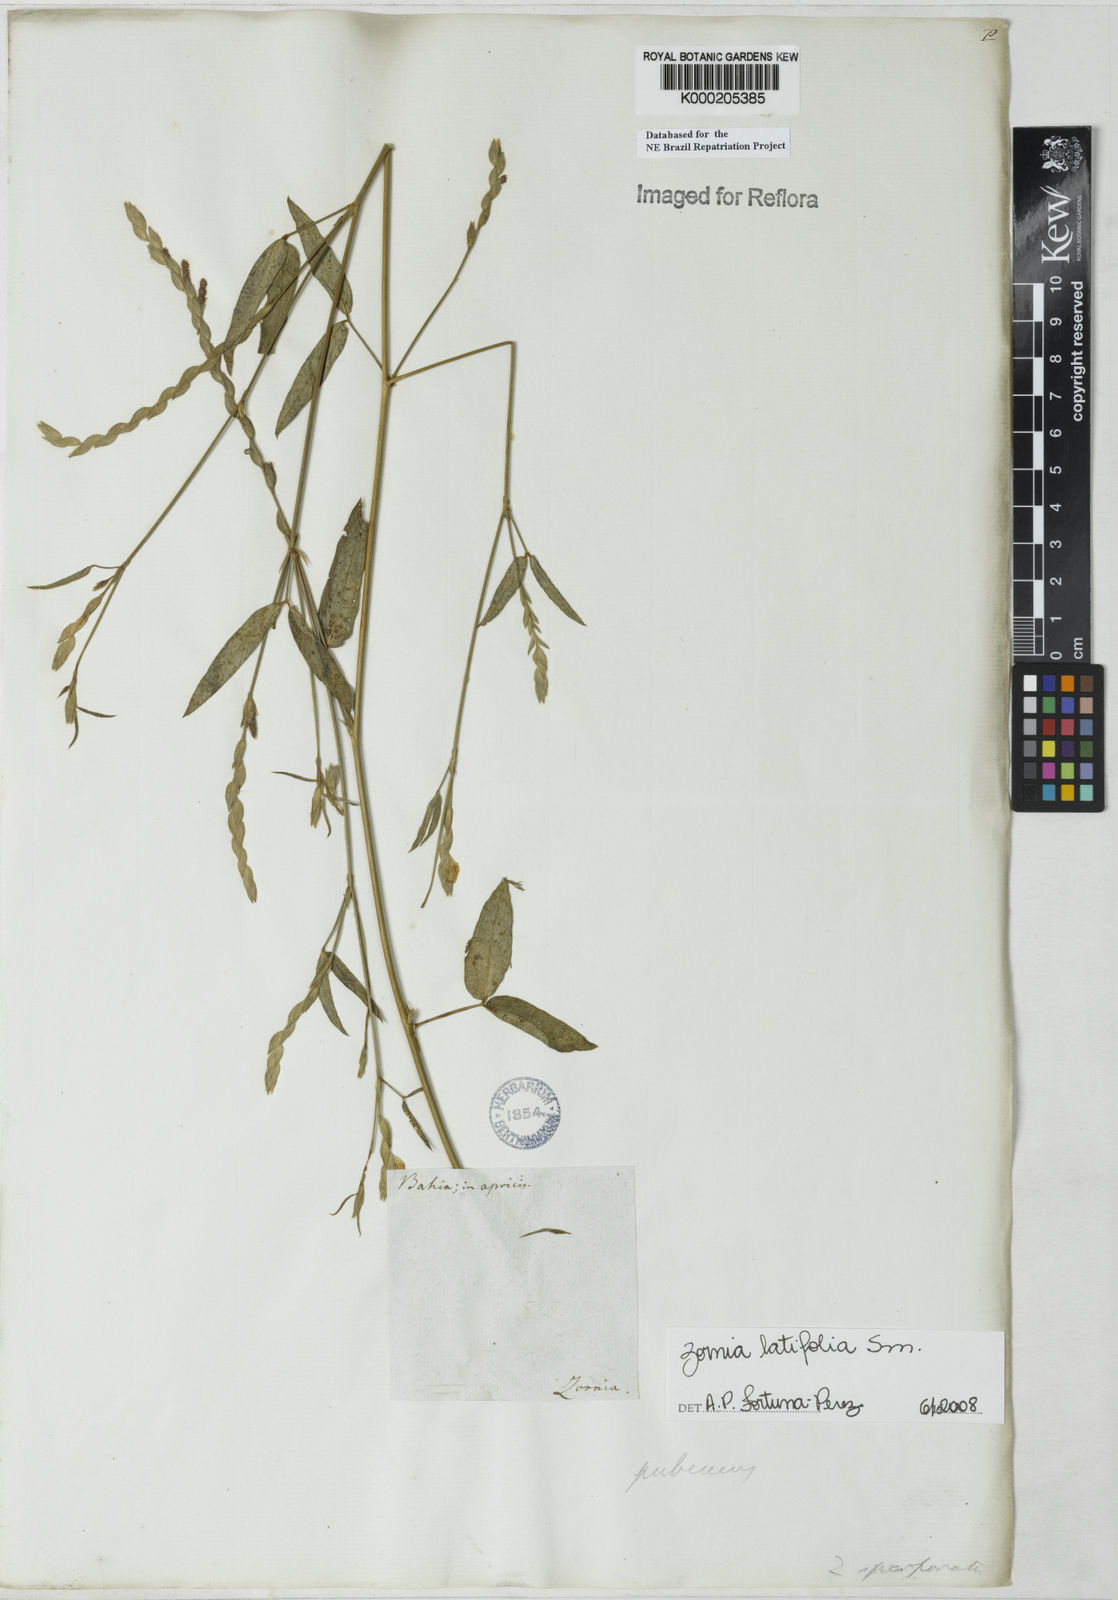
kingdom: Plantae
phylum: Tracheophyta
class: Magnoliopsida
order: Fabales
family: Fabaceae
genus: Zornia
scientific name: Zornia glabra
